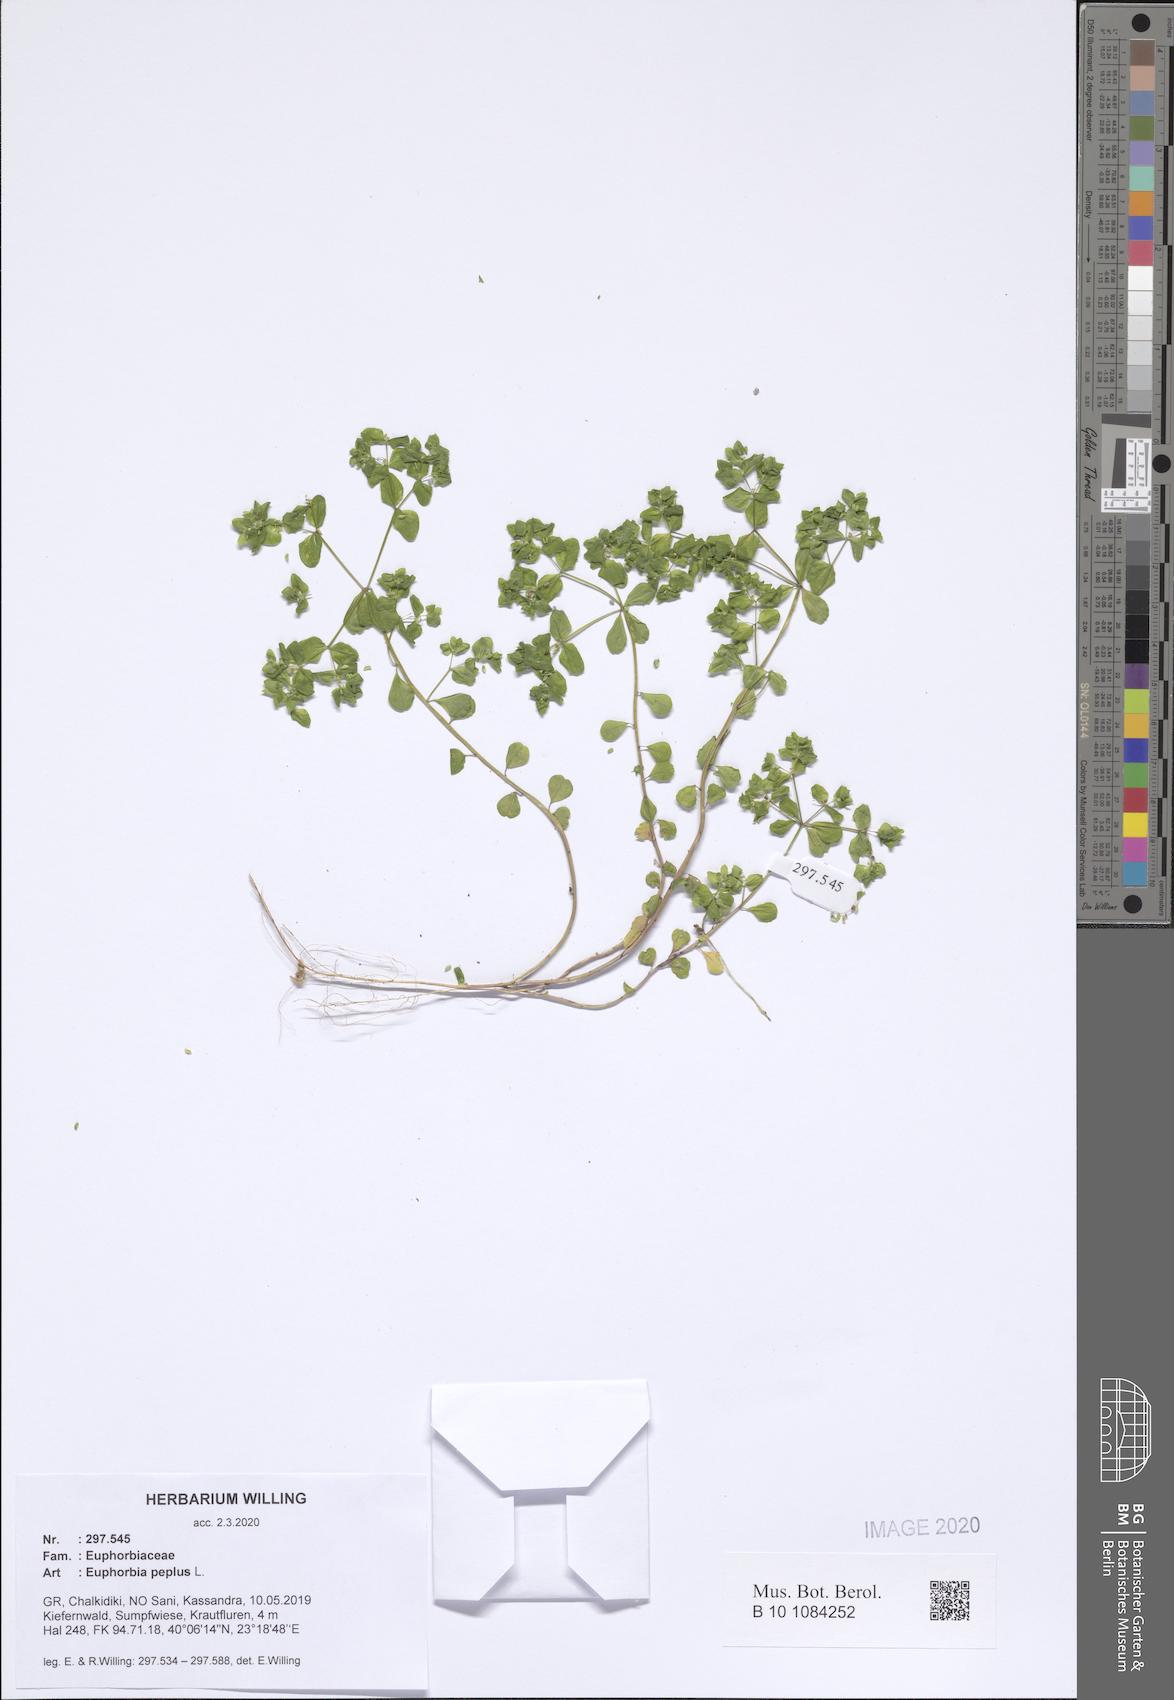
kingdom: Plantae
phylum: Tracheophyta
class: Magnoliopsida
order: Malpighiales
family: Euphorbiaceae
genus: Euphorbia
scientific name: Euphorbia peplus
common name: Petty spurge
